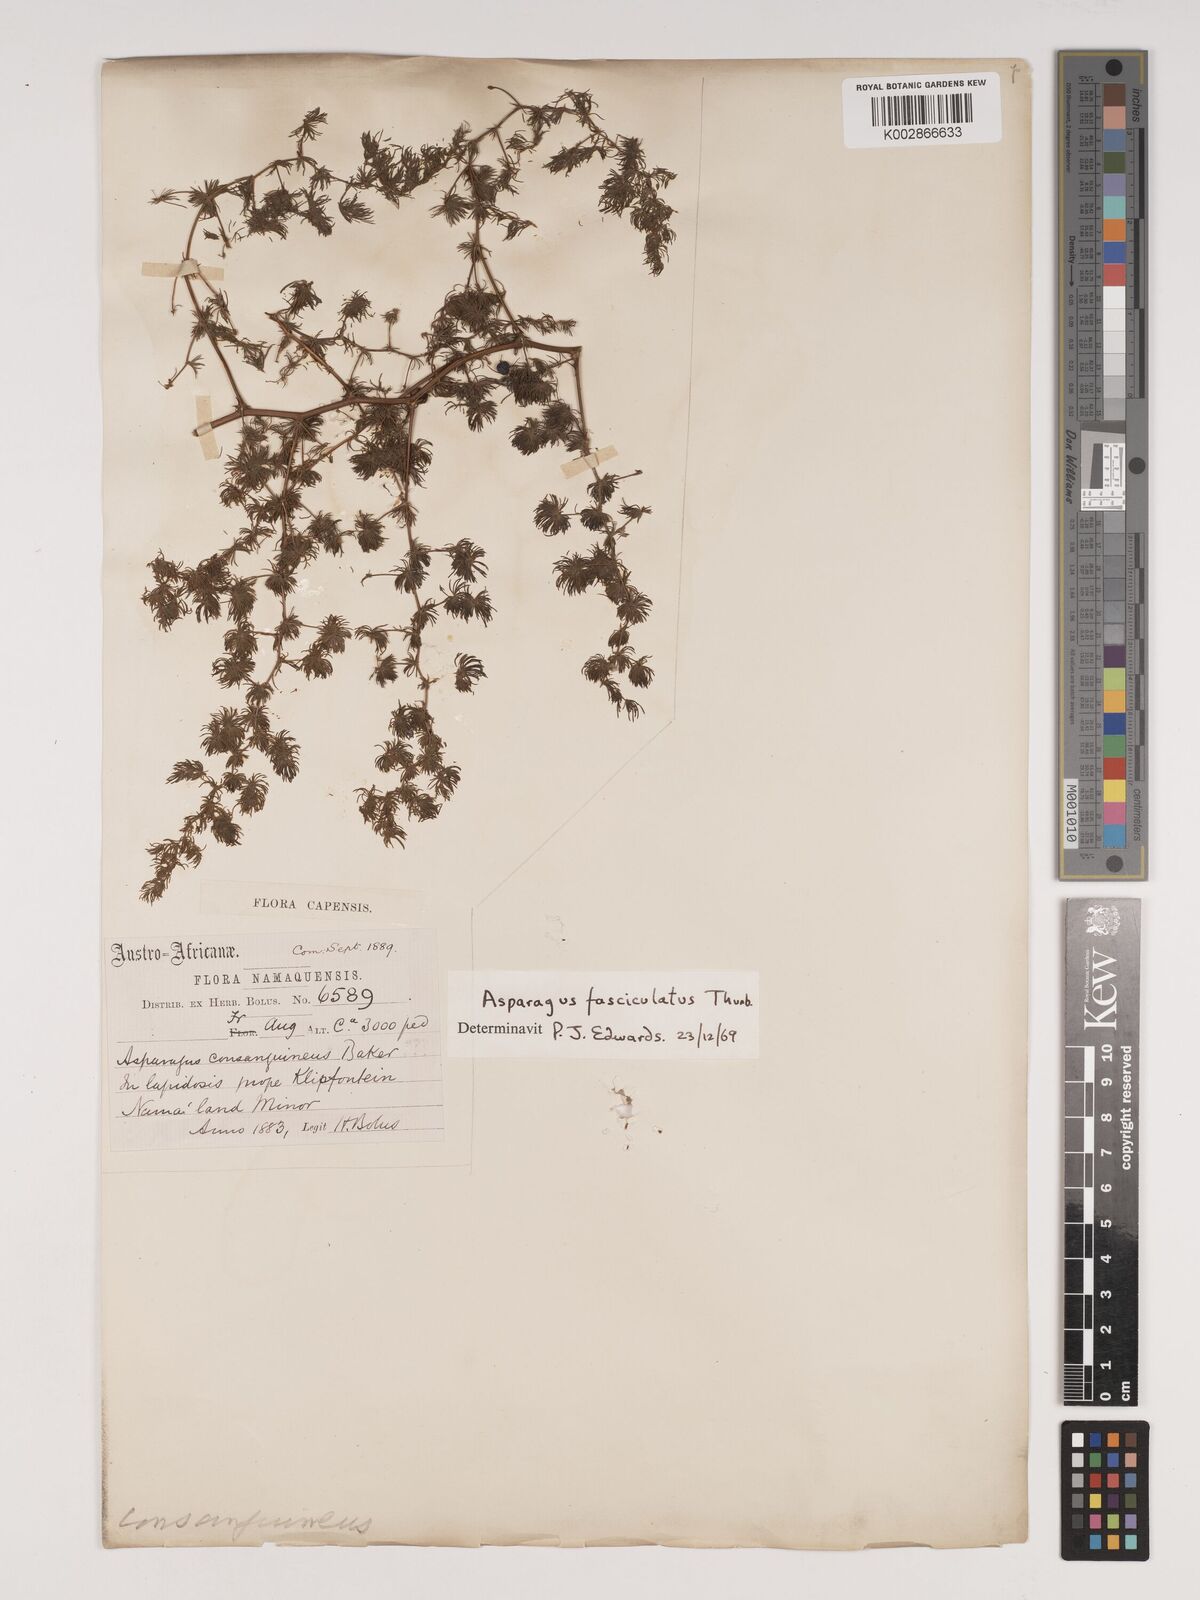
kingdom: Plantae
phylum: Tracheophyta
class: Liliopsida
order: Asparagales
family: Asparagaceae
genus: Asparagus
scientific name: Asparagus fasciculatus
